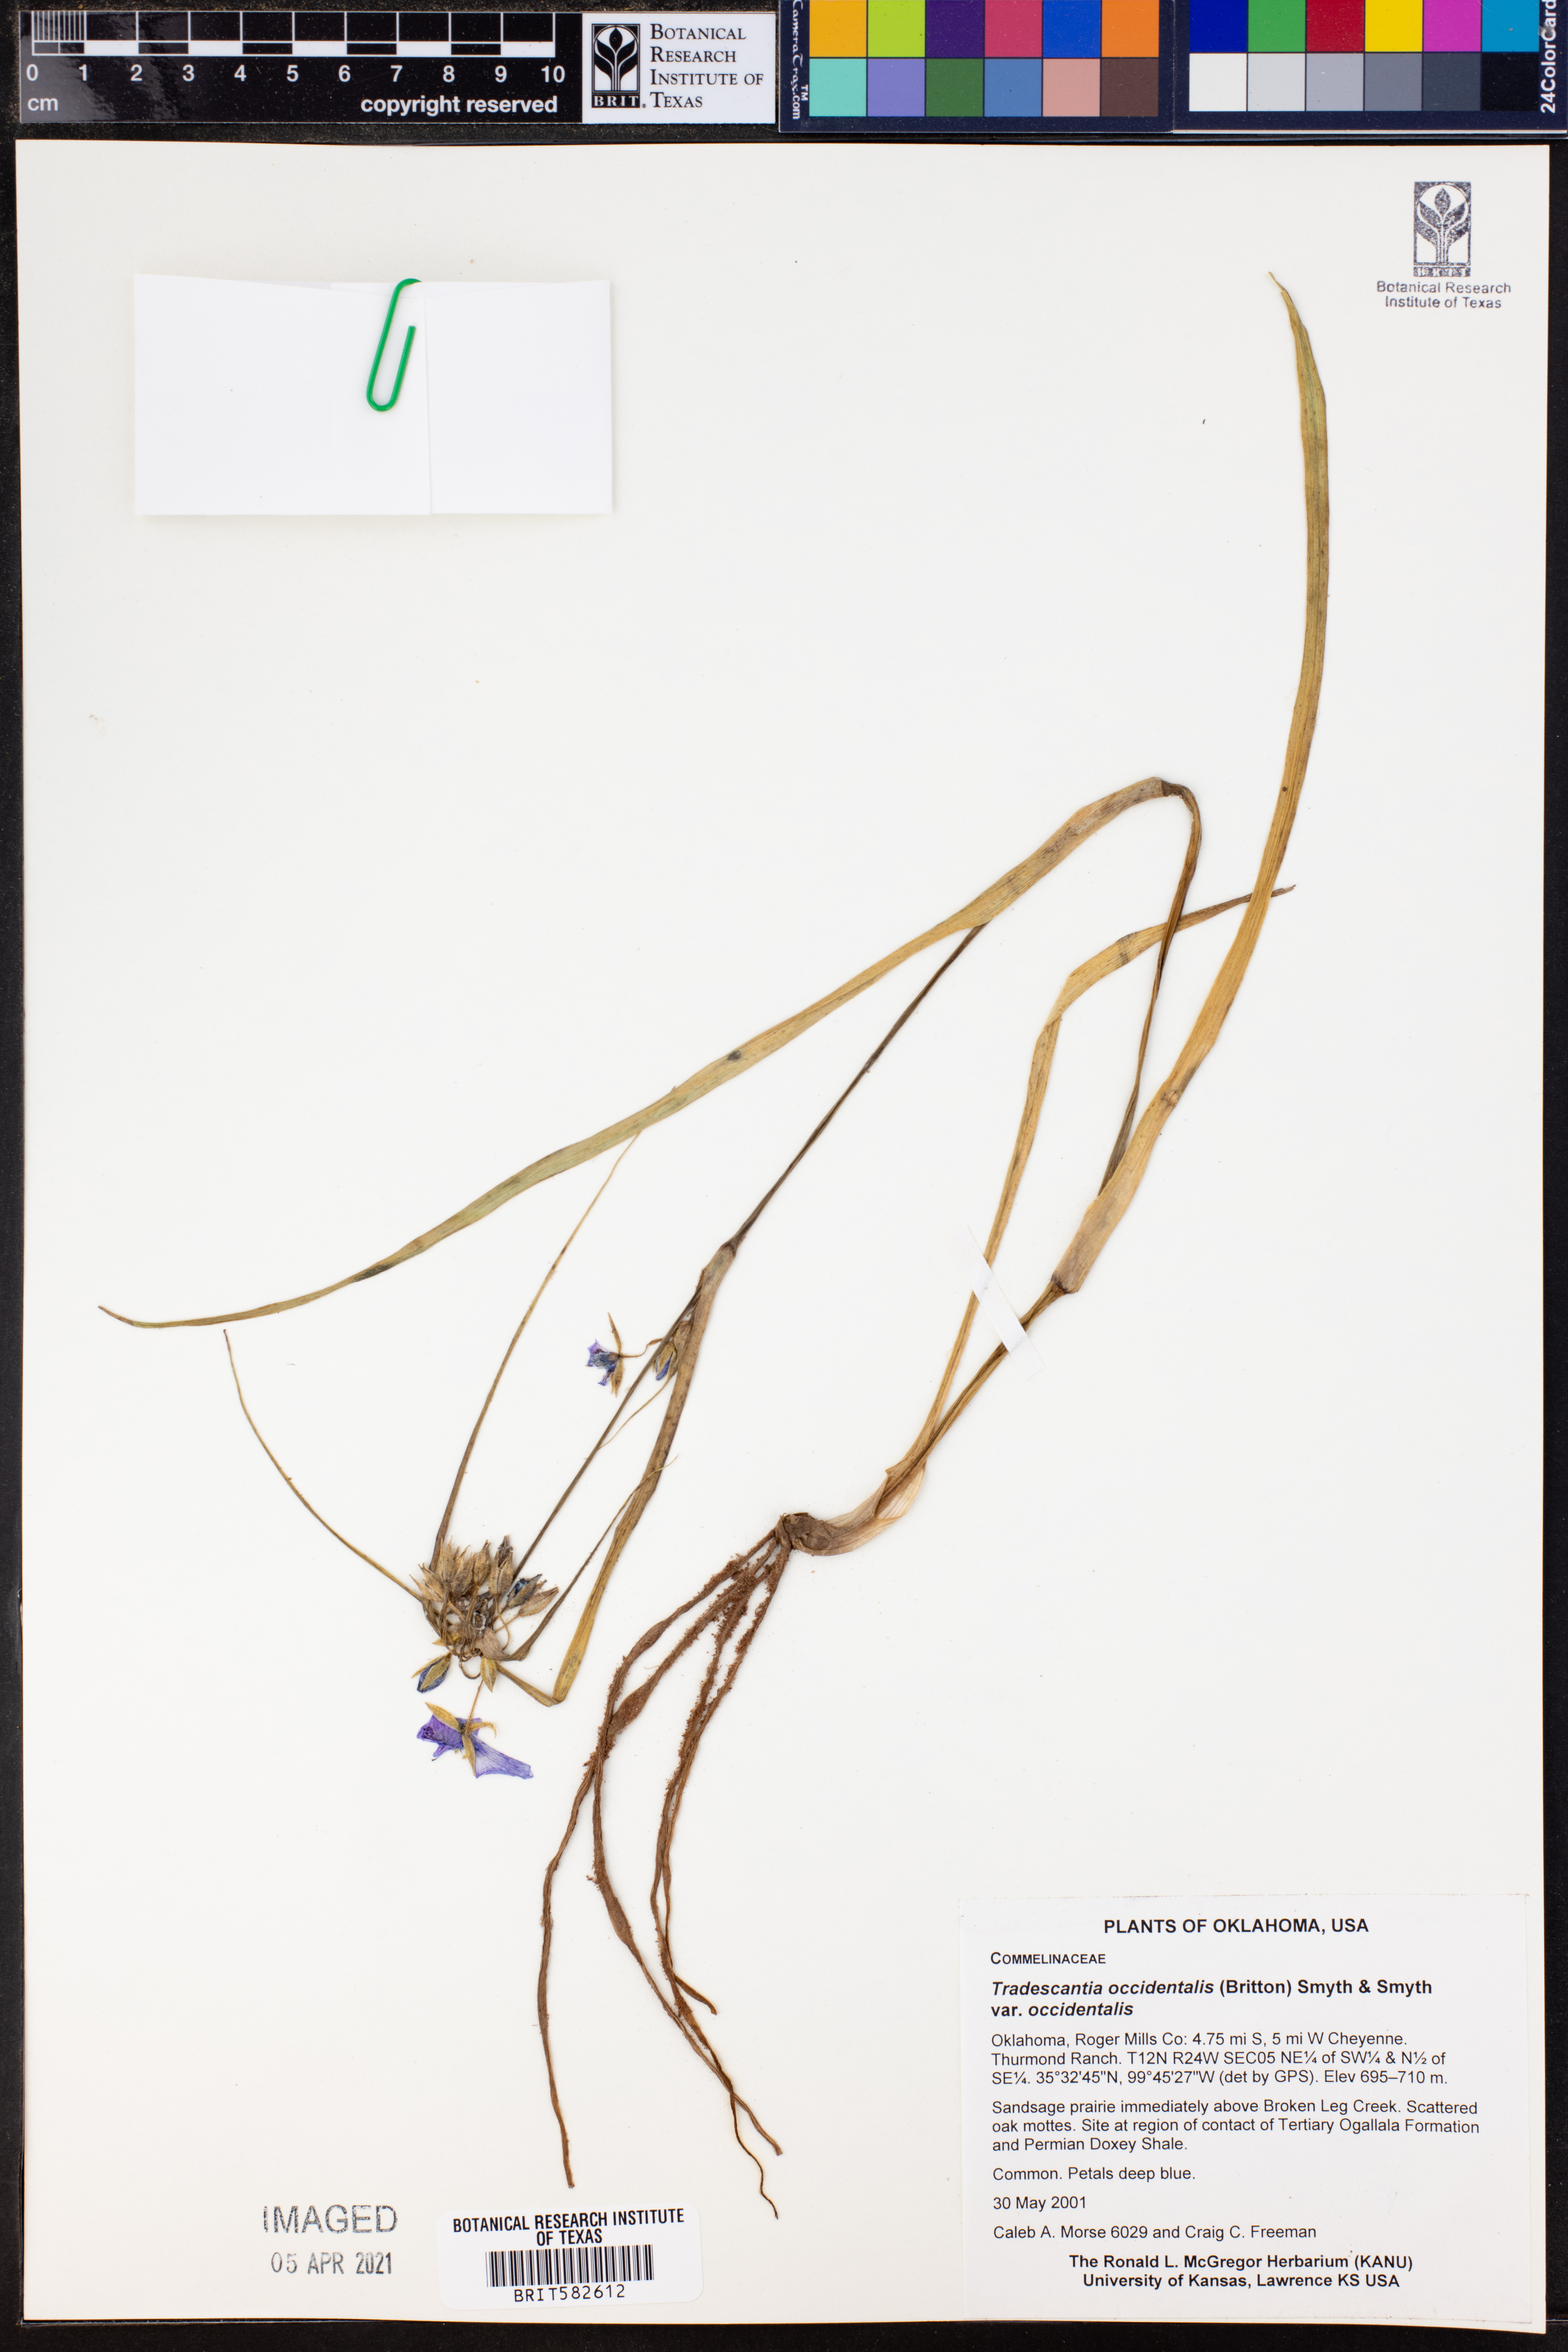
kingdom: Plantae
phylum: Tracheophyta
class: Liliopsida
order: Commelinales
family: Commelinaceae
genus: Tradescantia
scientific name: Tradescantia occidentalis
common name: Prairie spiderwort
